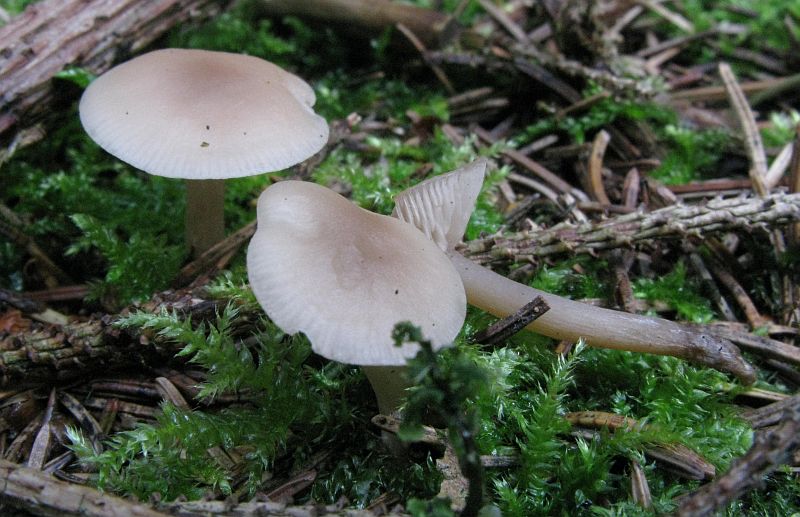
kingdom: Fungi
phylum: Basidiomycota
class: Agaricomycetes
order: Agaricales
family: Tricholomataceae
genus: Clitocybe
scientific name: Clitocybe fragrans
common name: vellugtende tragthat
